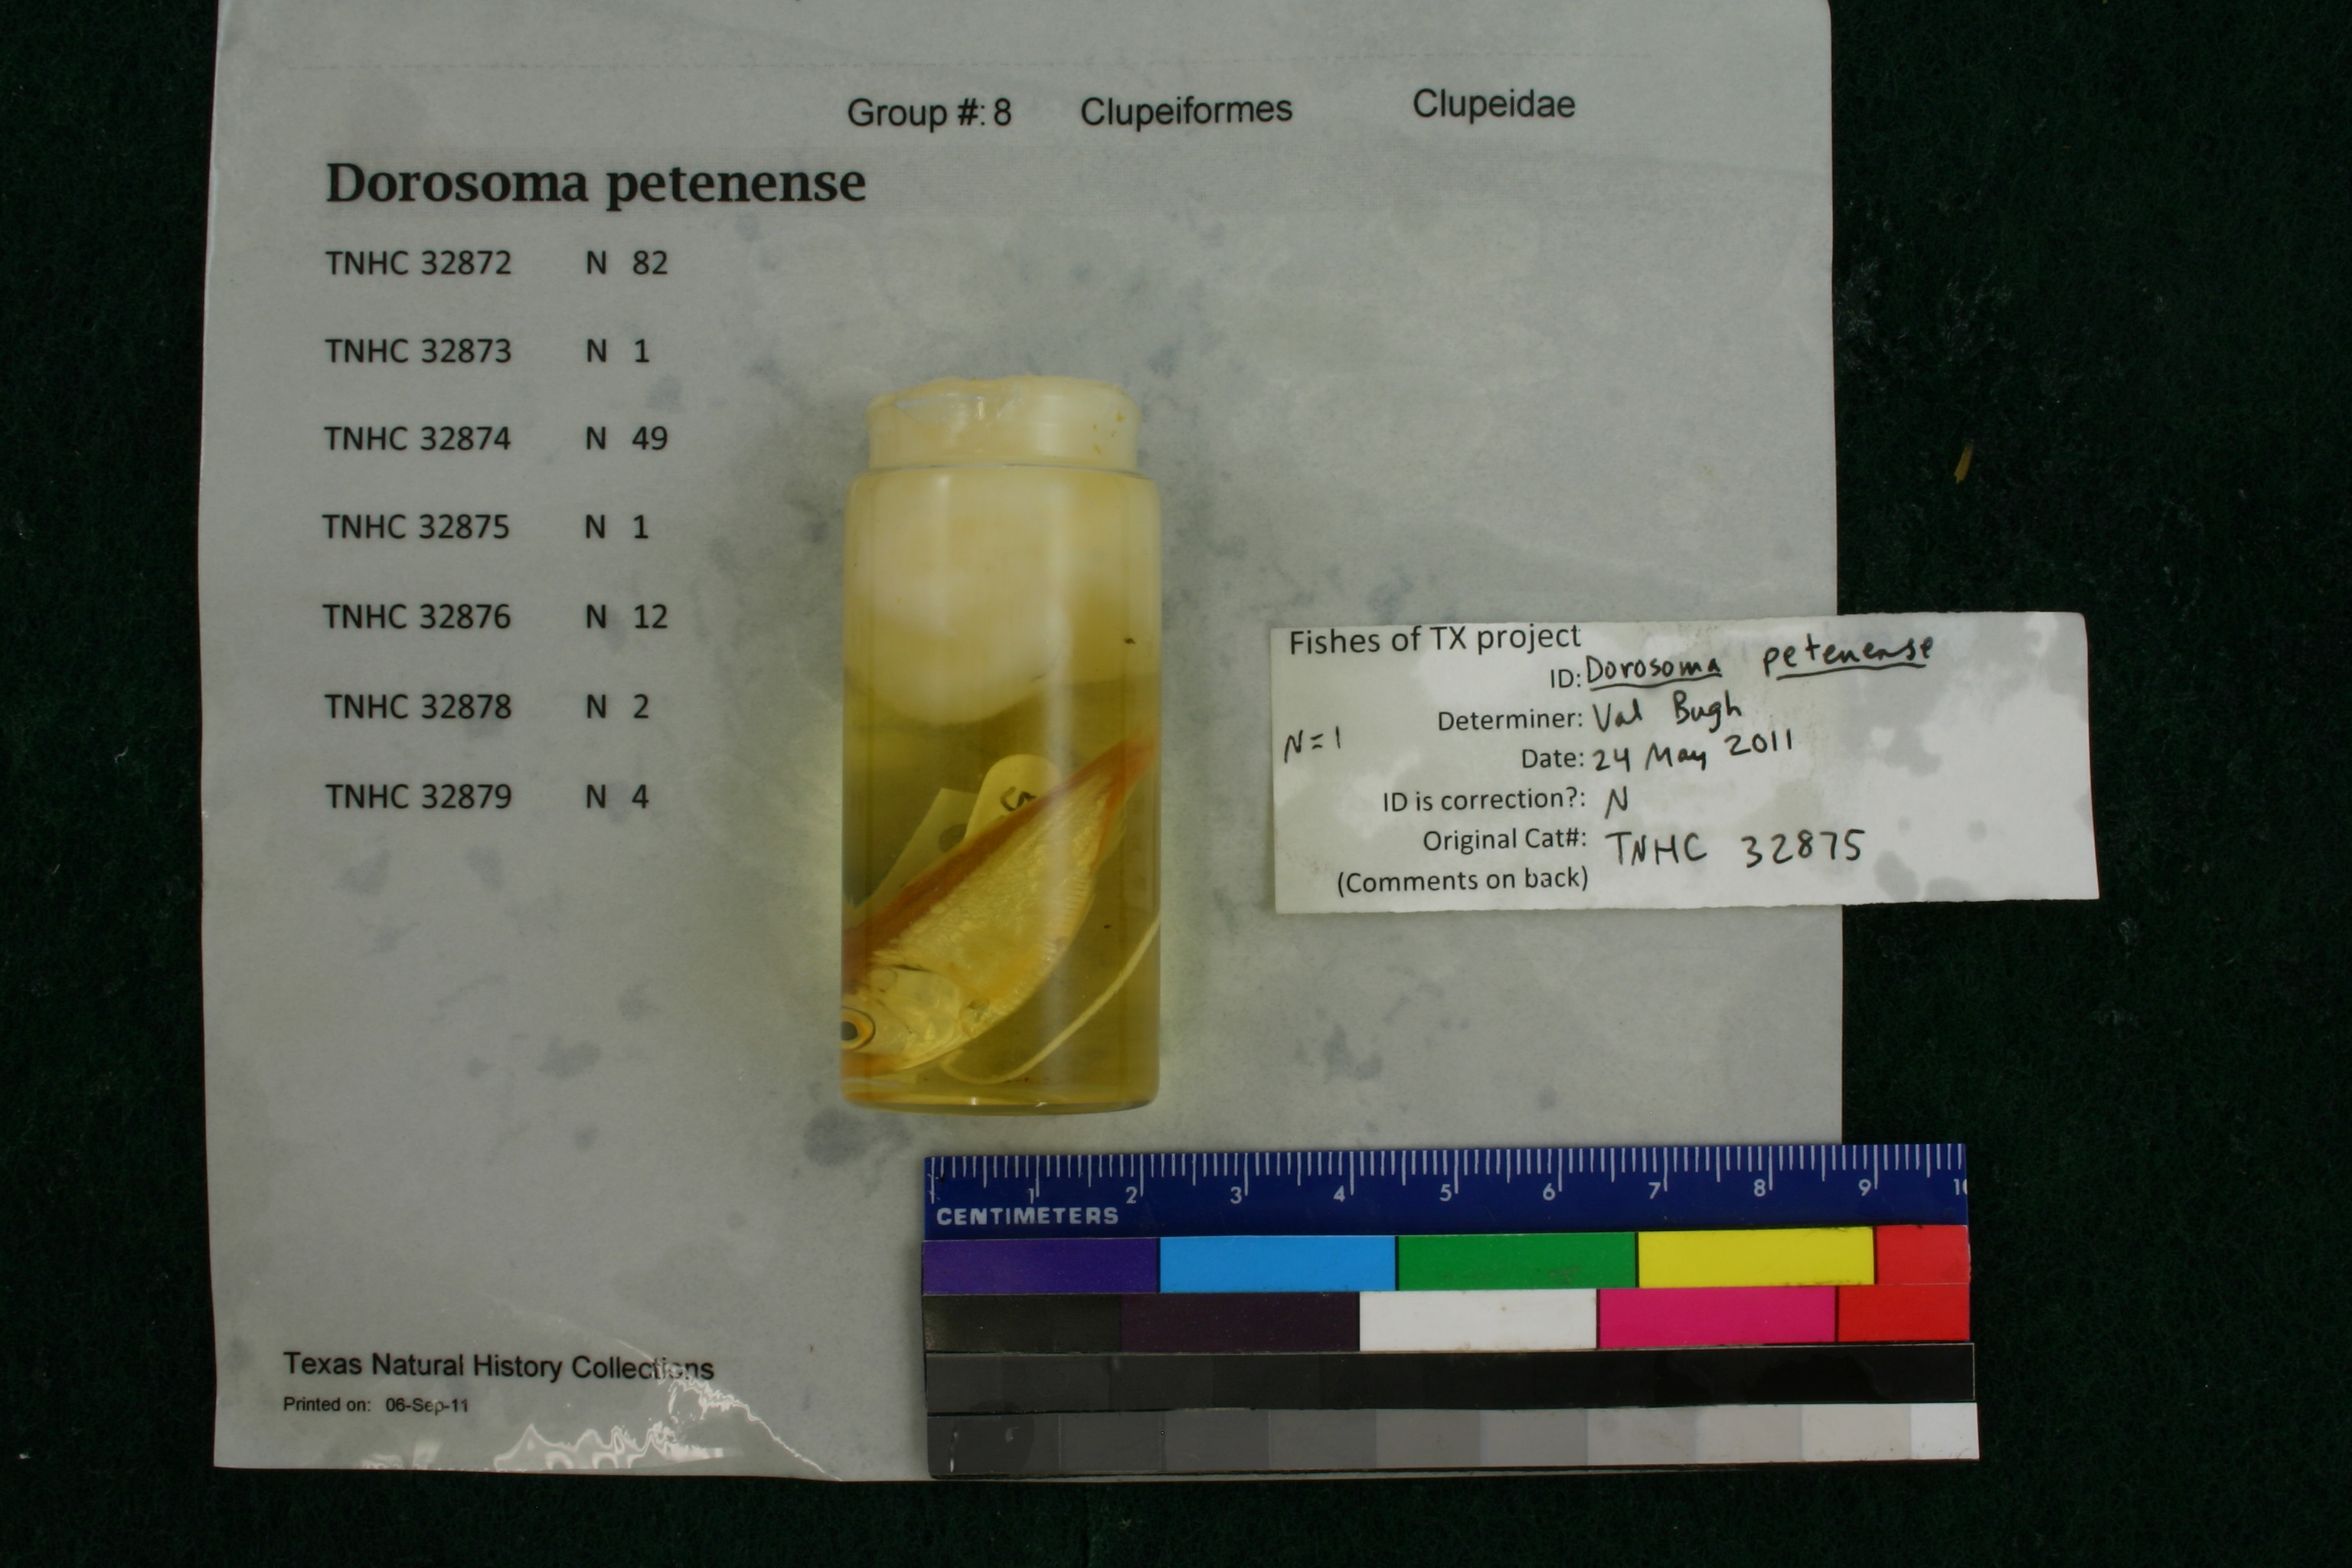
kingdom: Animalia
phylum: Chordata
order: Clupeiformes
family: Clupeidae
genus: Dorosoma
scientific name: Dorosoma petenense
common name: Threadfin shad
